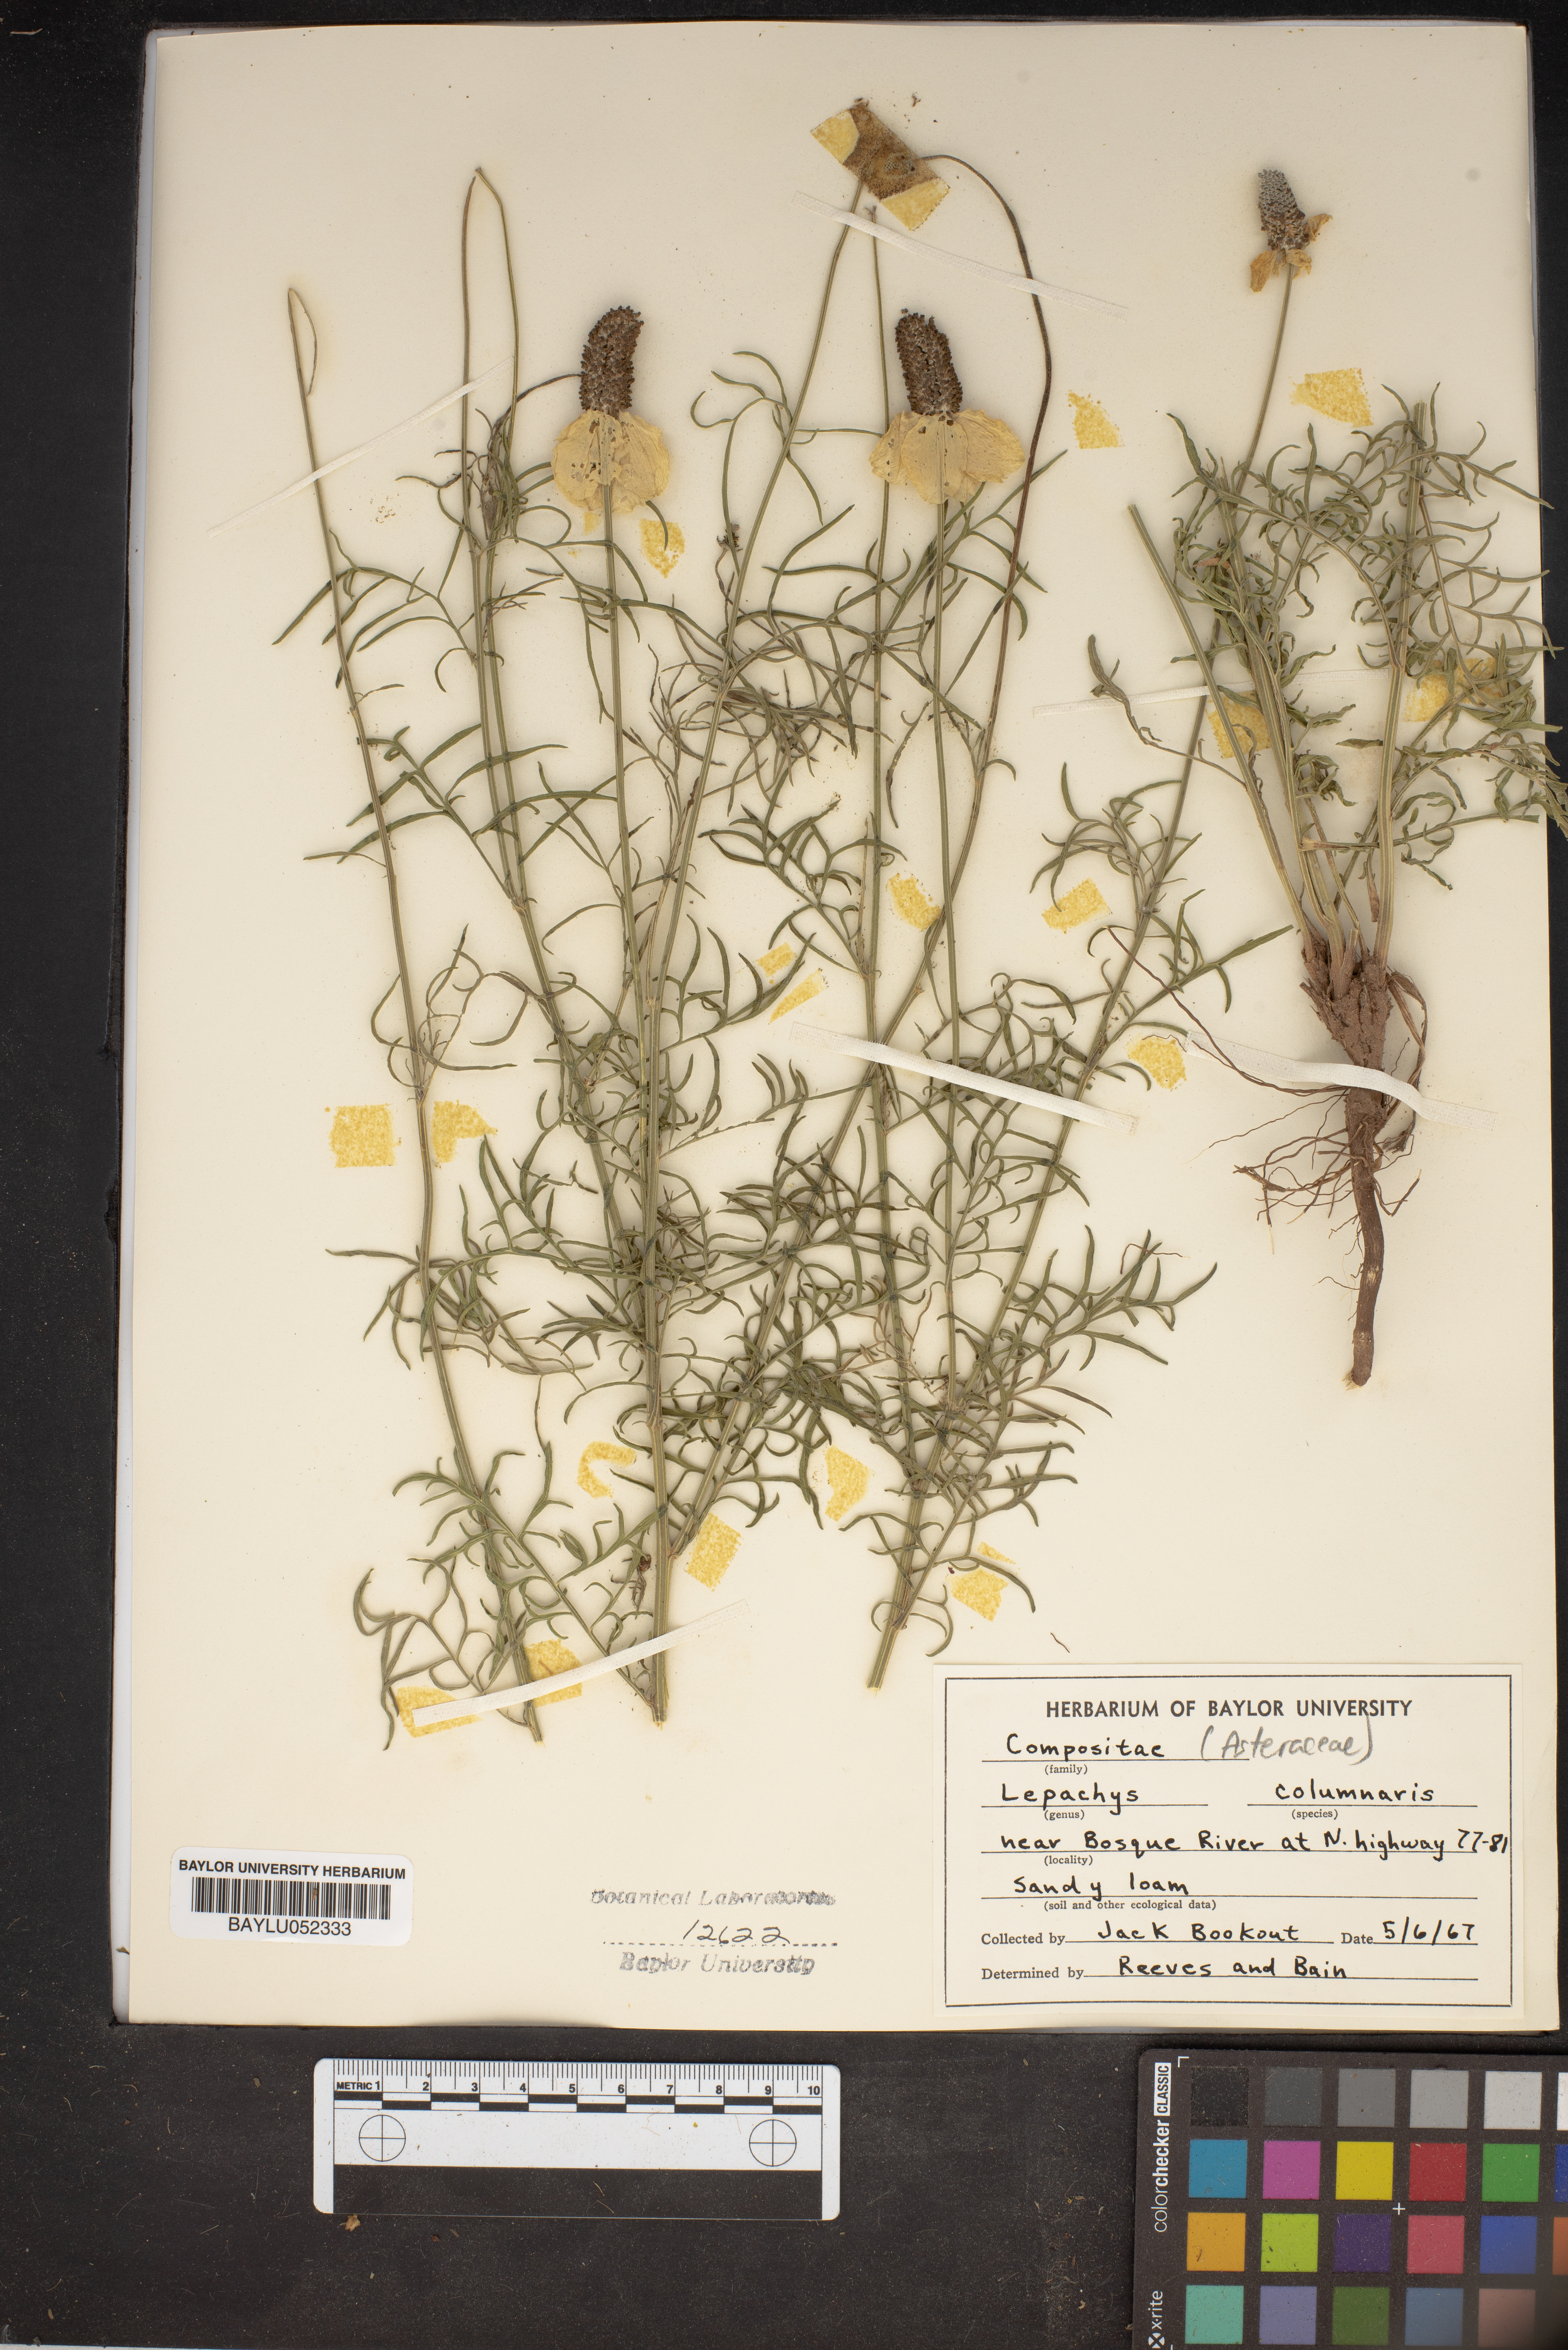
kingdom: Plantae
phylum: Tracheophyta
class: Magnoliopsida
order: Asterales
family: Asteraceae
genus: Ratibida
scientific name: Ratibida columnifera
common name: Prairie coneflower
